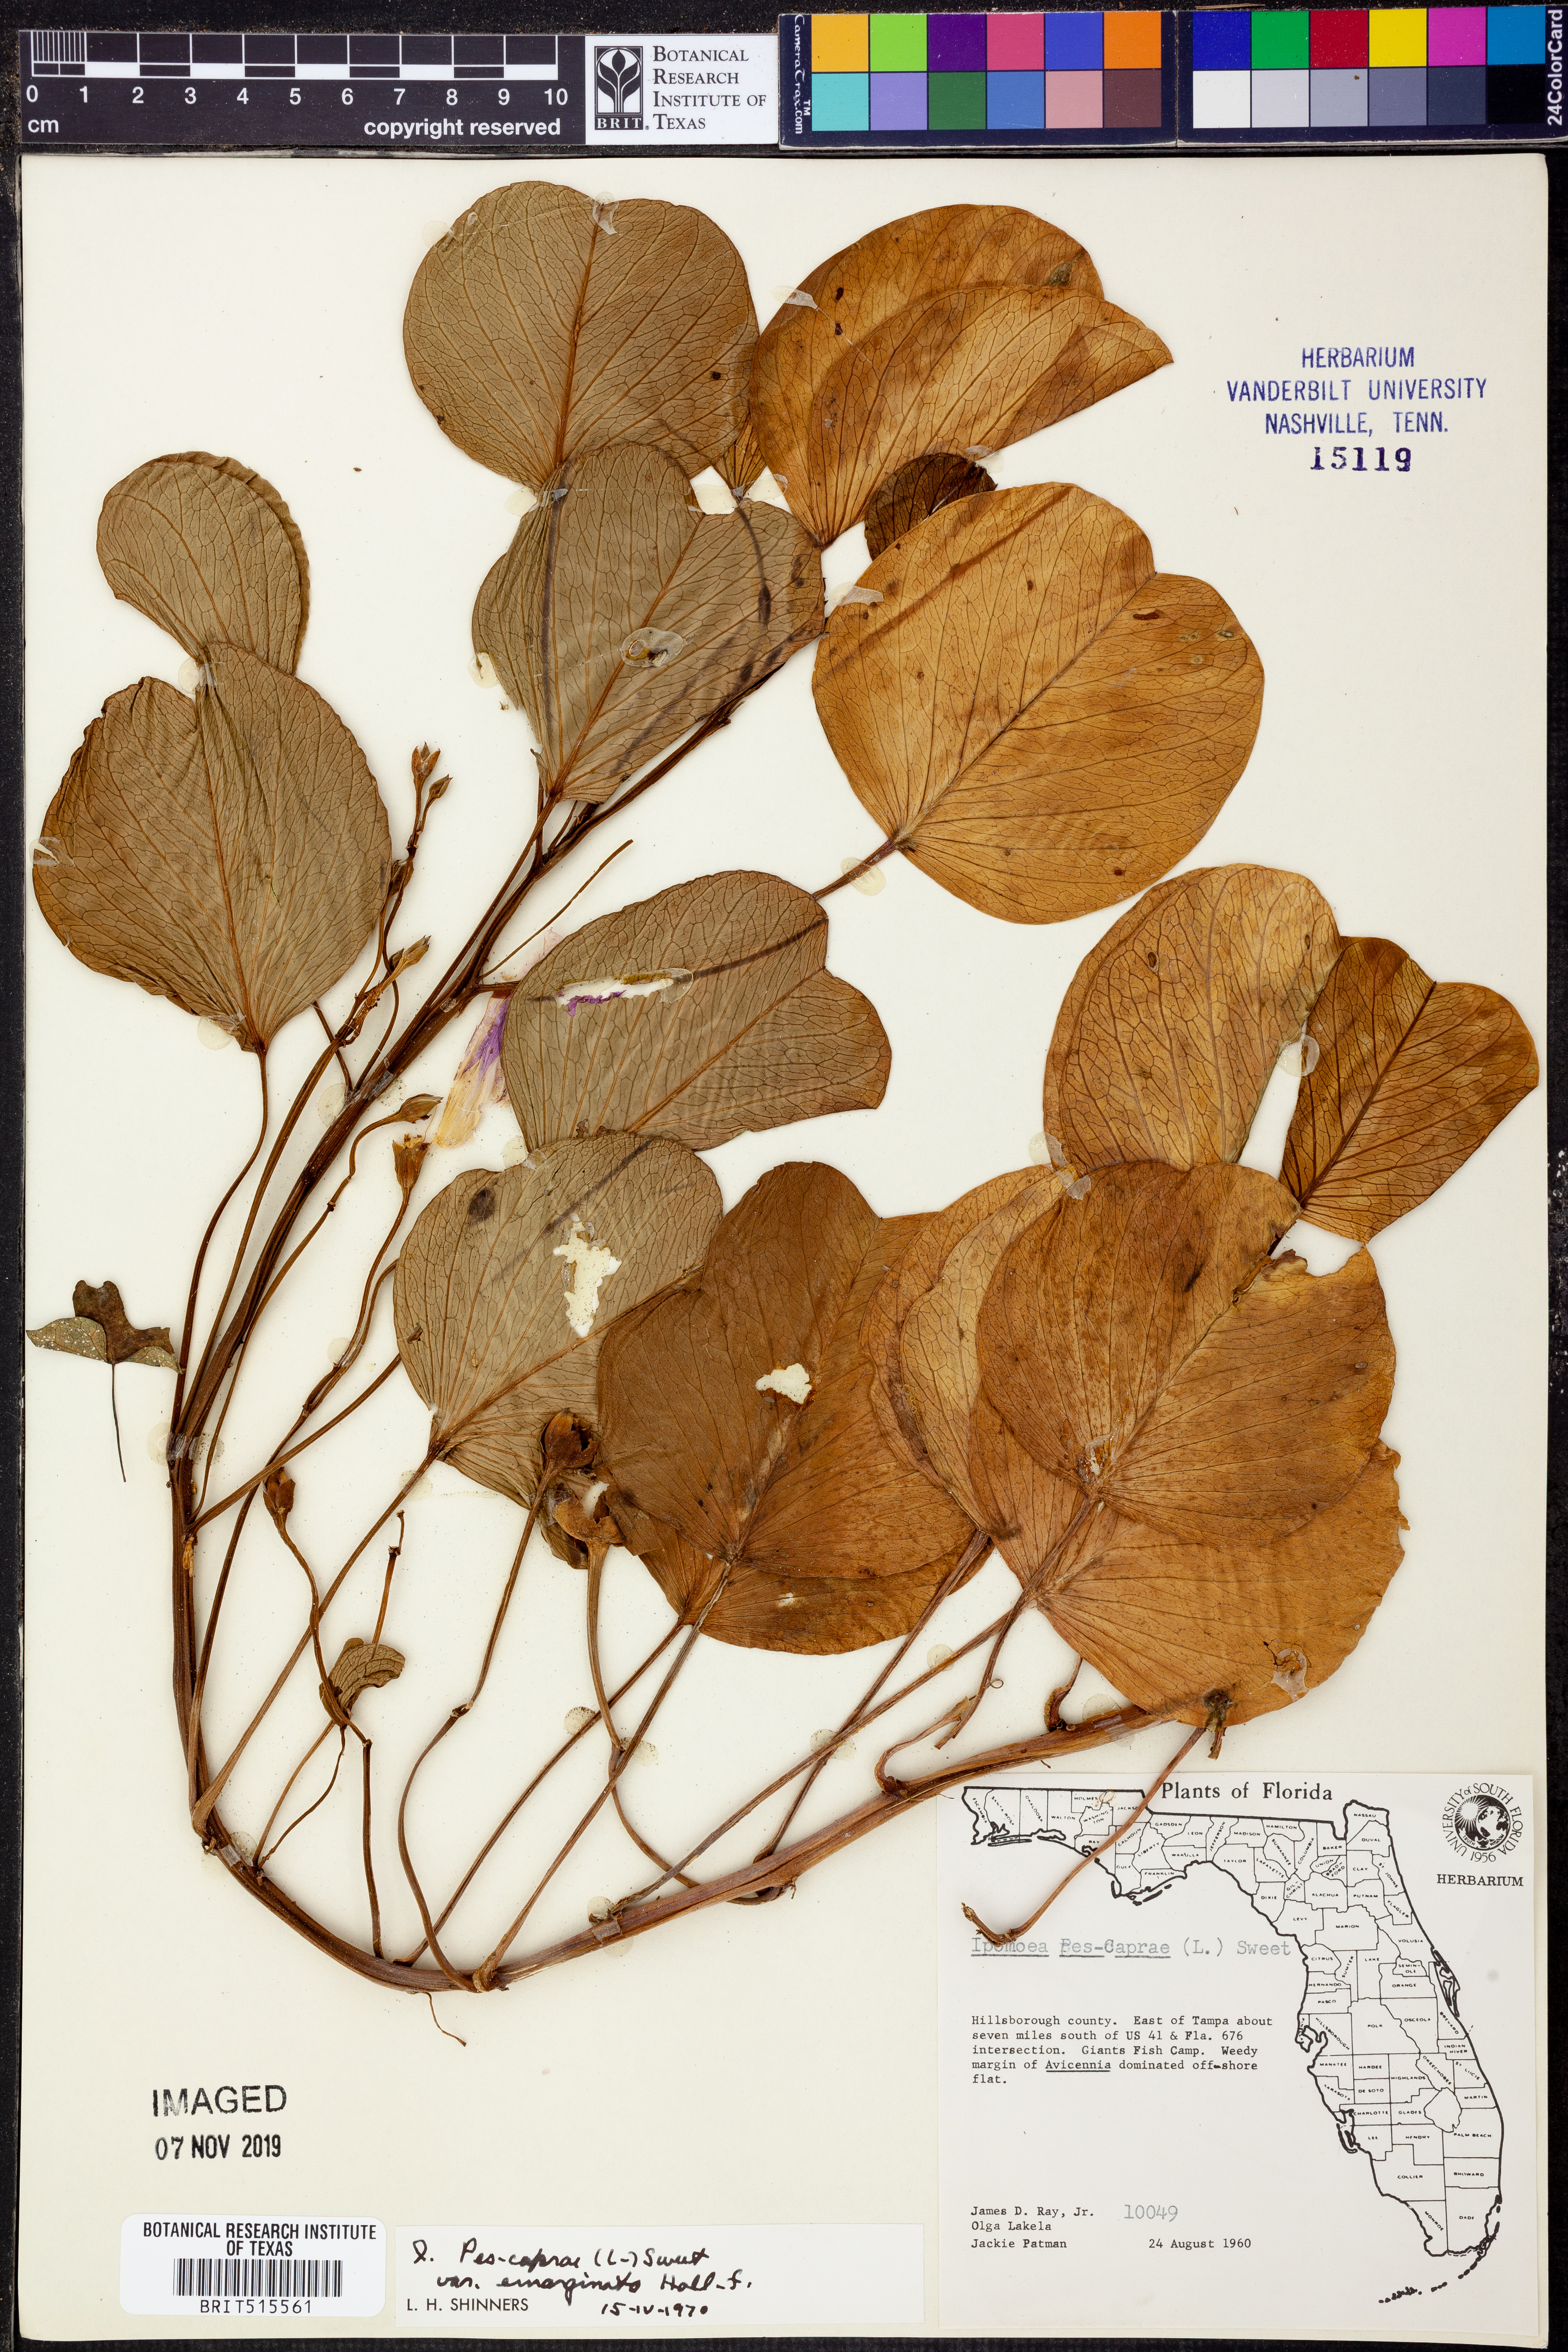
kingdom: Plantae
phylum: Tracheophyta
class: Magnoliopsida
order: Solanales
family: Convolvulaceae
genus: Ipomoea
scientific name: Ipomoea pes-caprae
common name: Beach morning glory
